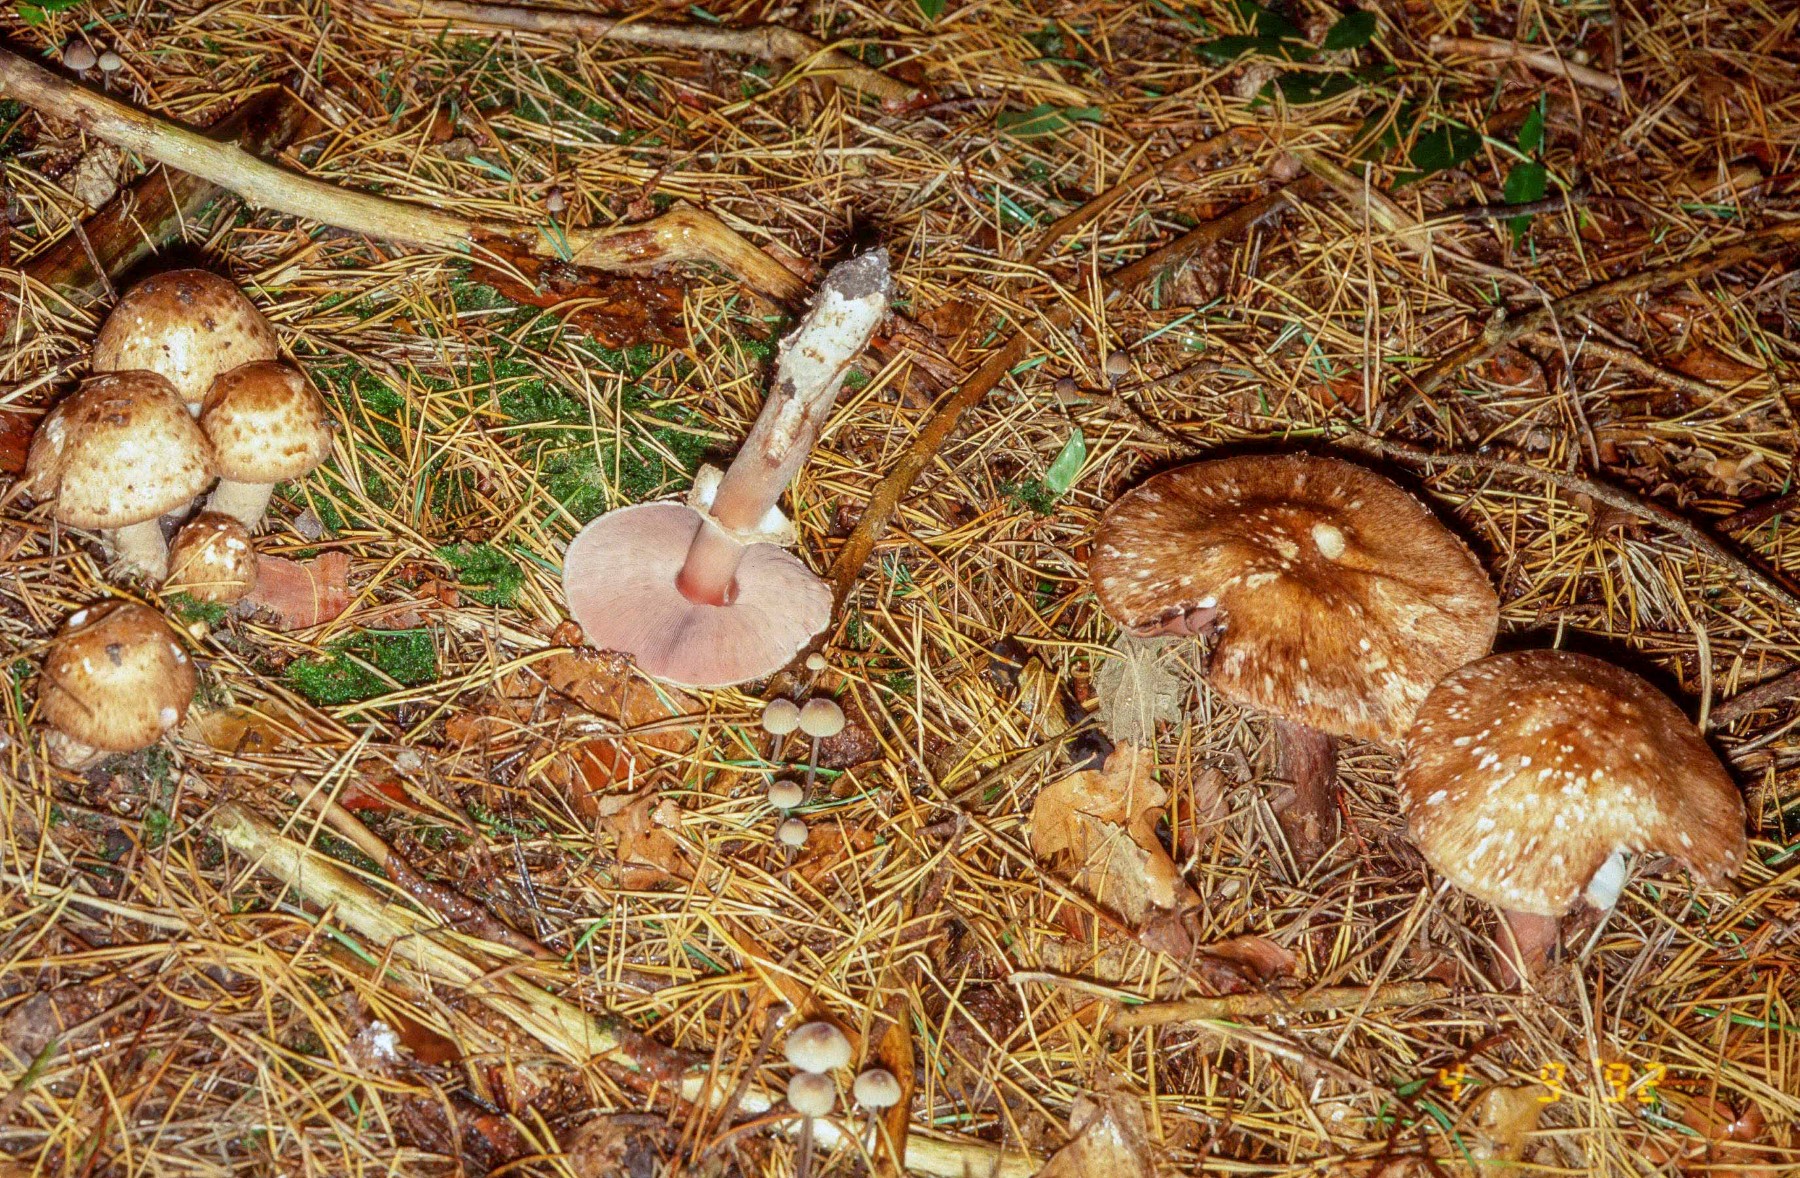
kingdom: Fungi
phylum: Basidiomycota
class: Agaricomycetes
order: Agaricales
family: Agaricaceae
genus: Agaricus
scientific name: Agaricus sylvaticus
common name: lille blod-champignon
